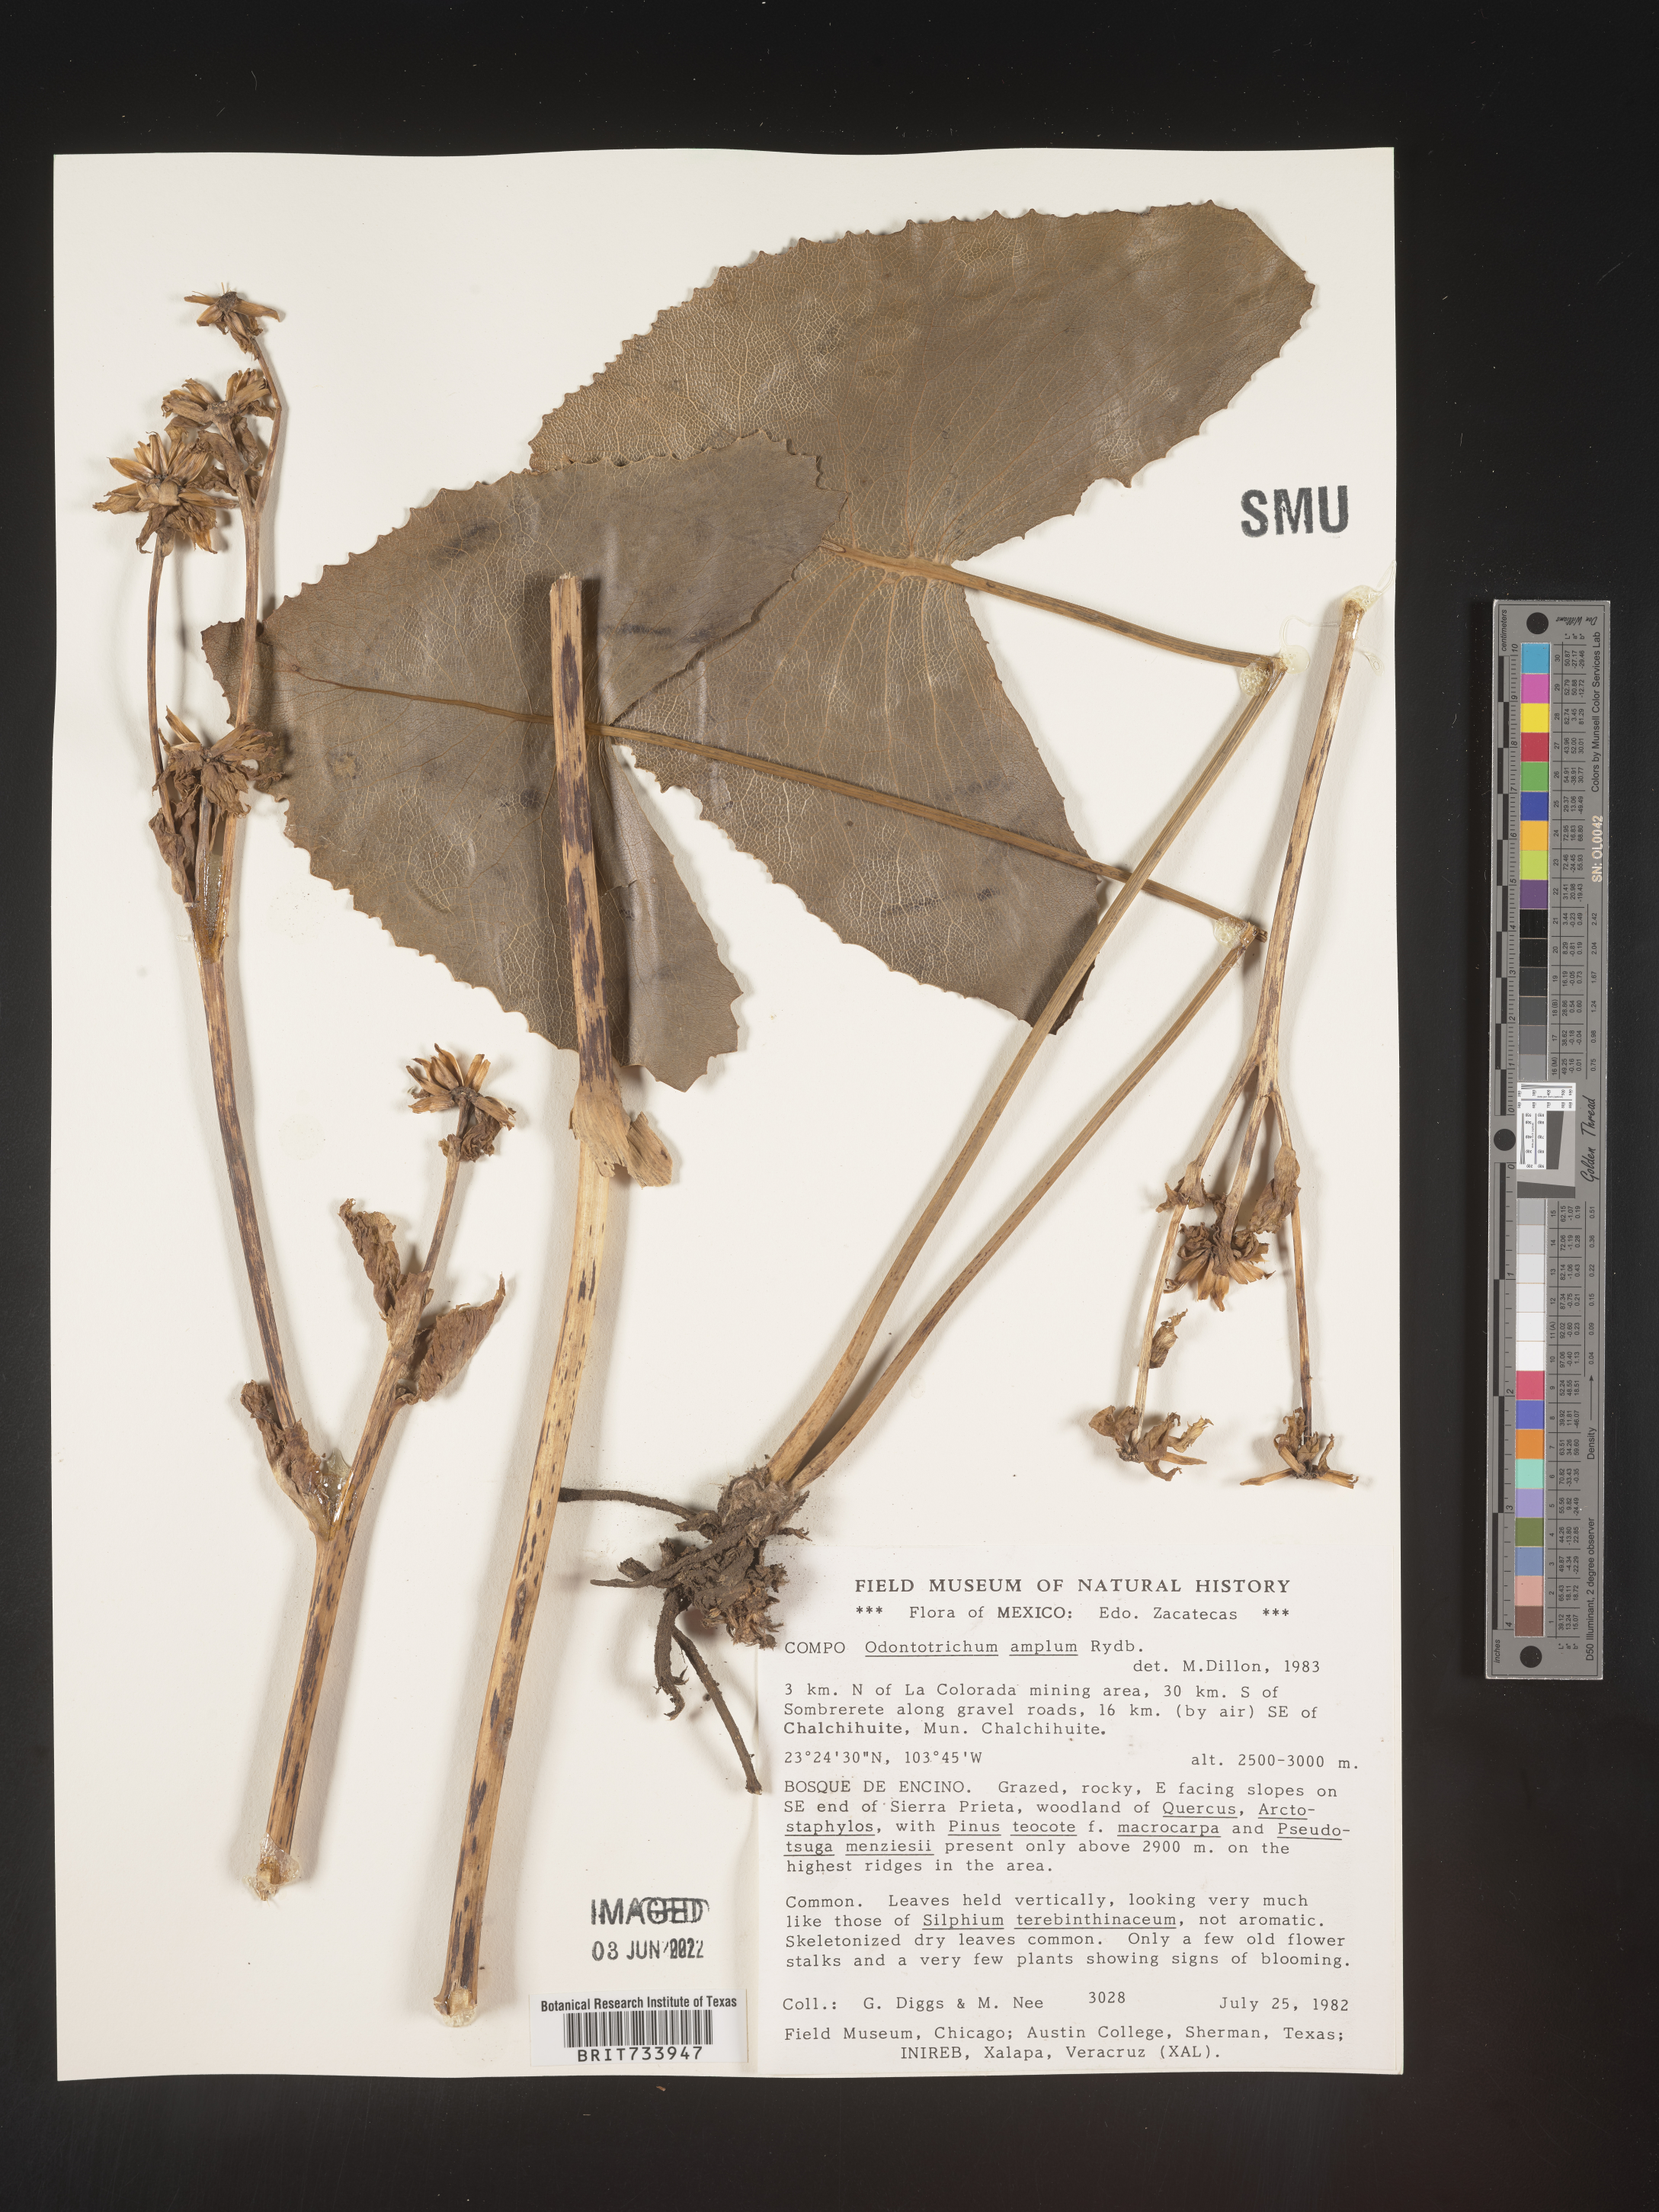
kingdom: Plantae
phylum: Tracheophyta
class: Magnoliopsida
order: Asterales
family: Asteraceae
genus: Psacalium
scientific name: Psacalium
